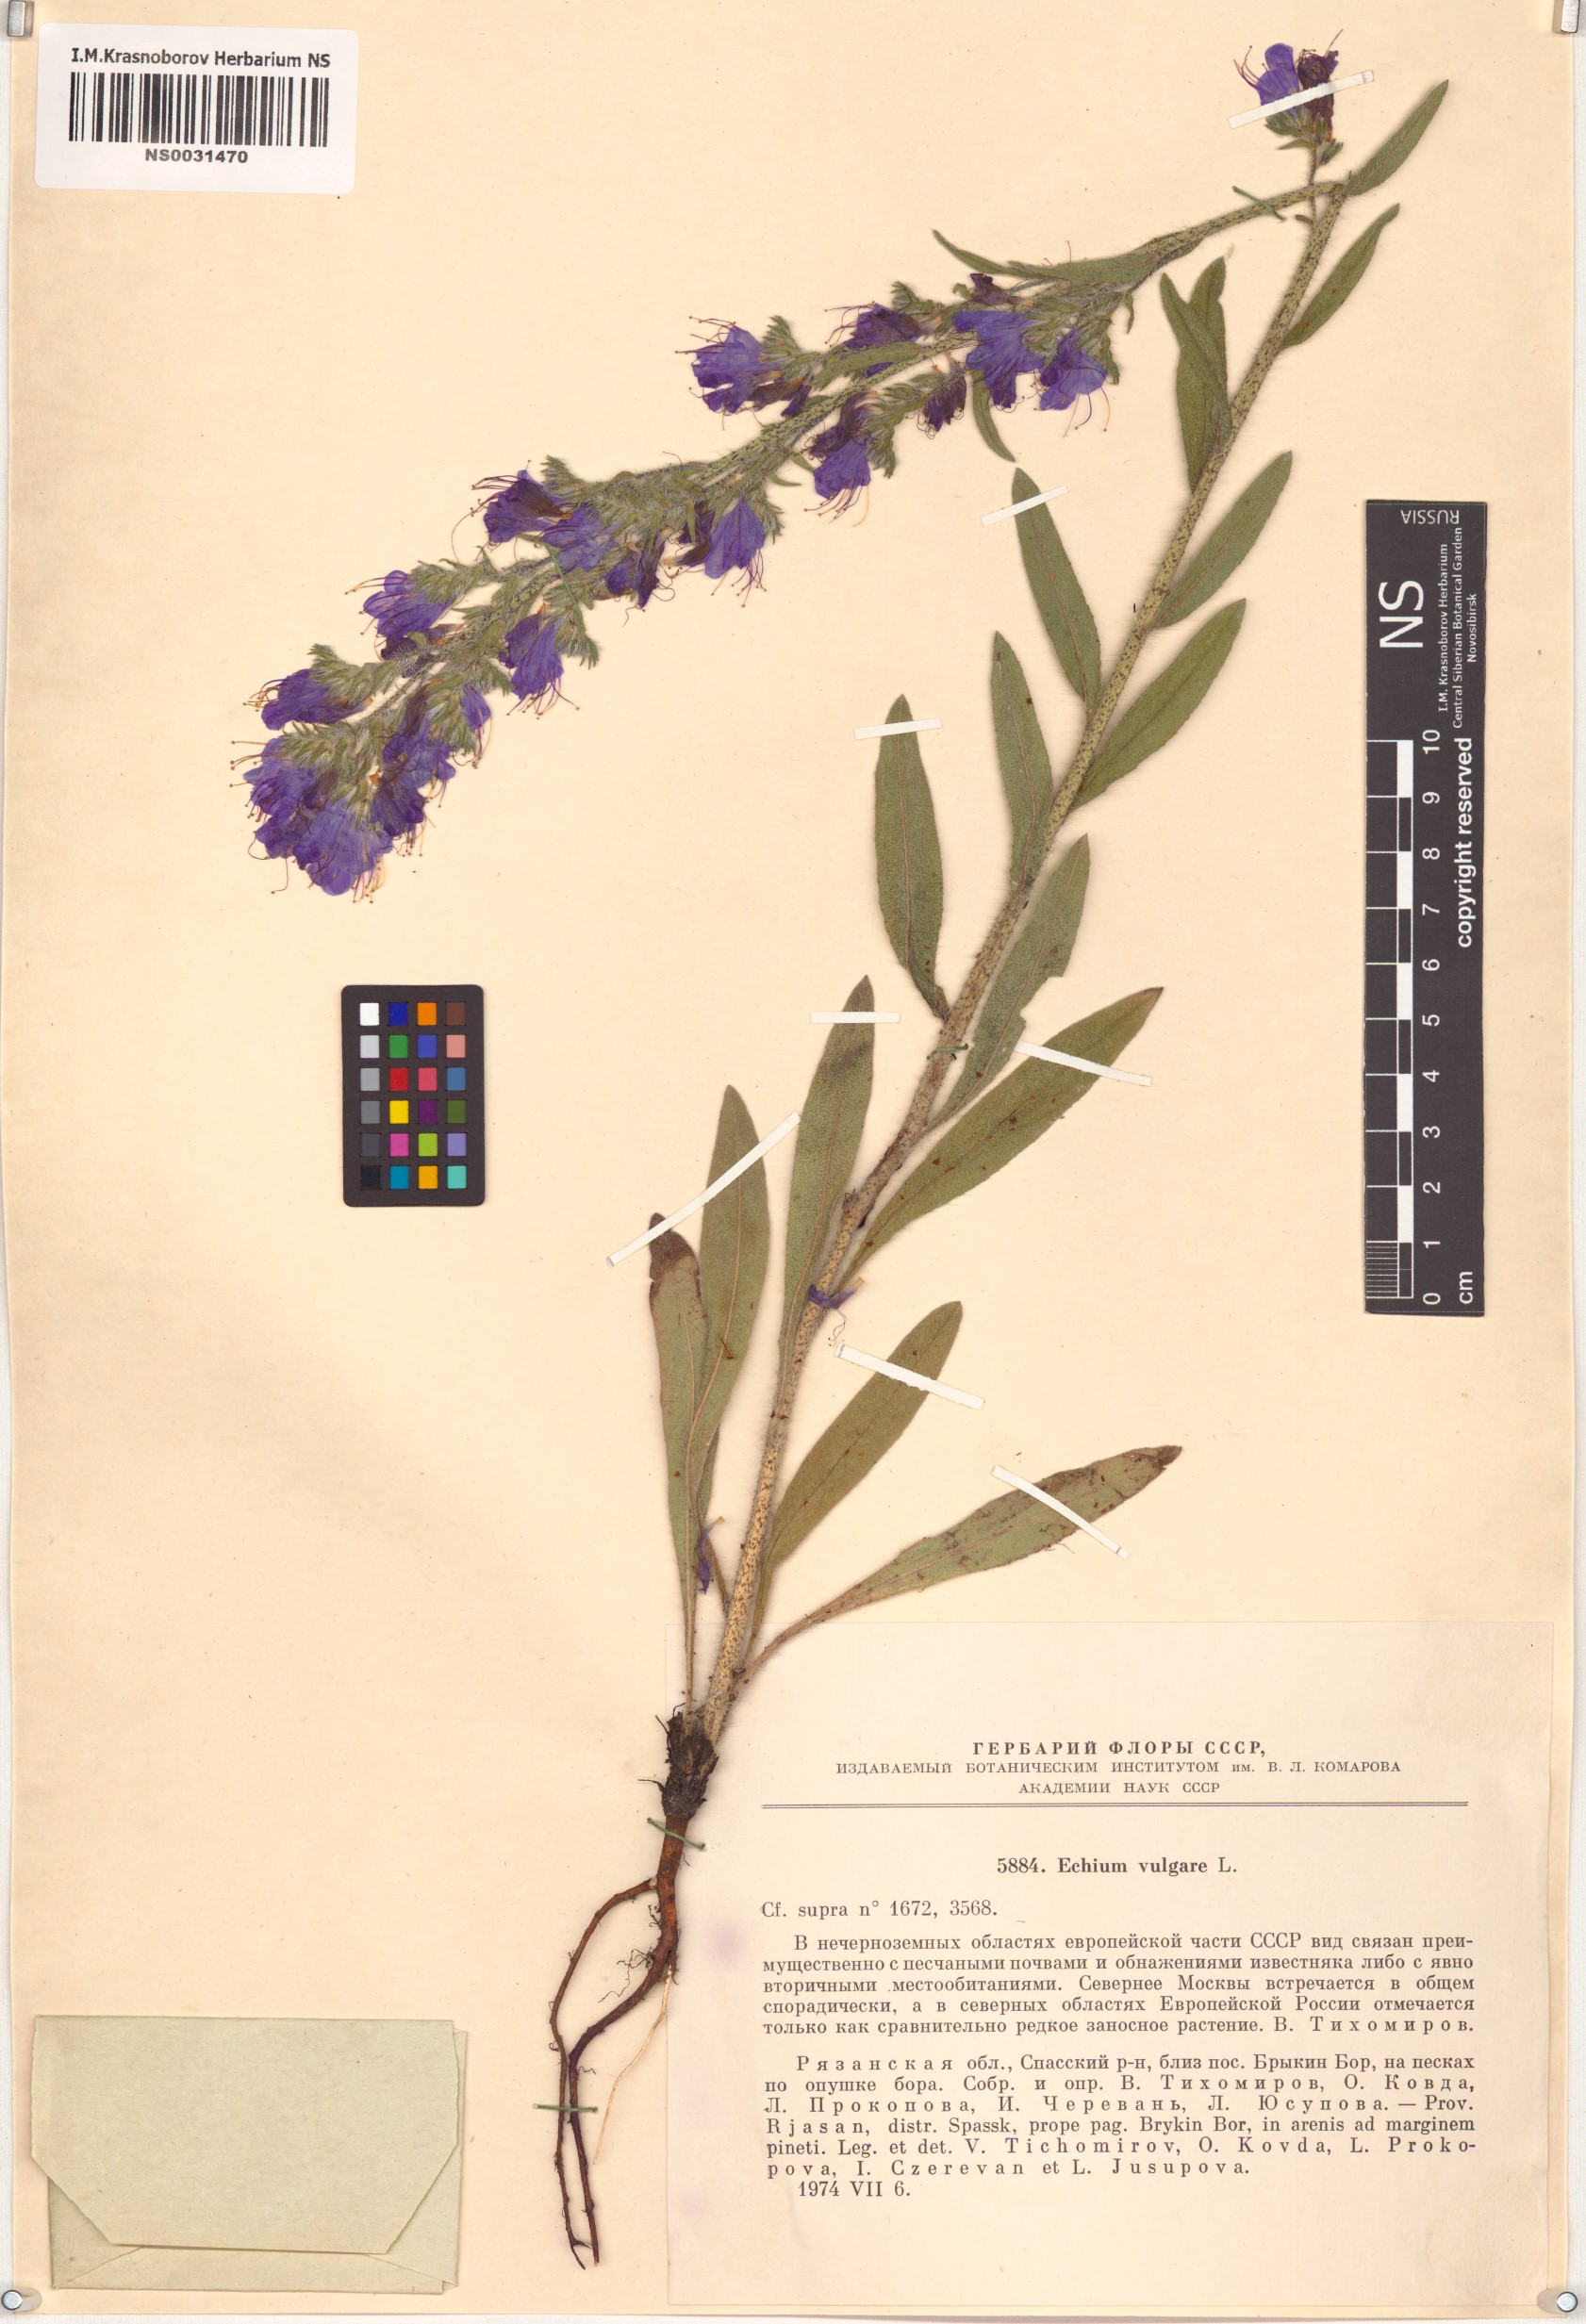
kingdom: Plantae
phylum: Tracheophyta
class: Magnoliopsida
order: Boraginales
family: Boraginaceae
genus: Echium
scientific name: Echium vulgare
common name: Common viper's bugloss
